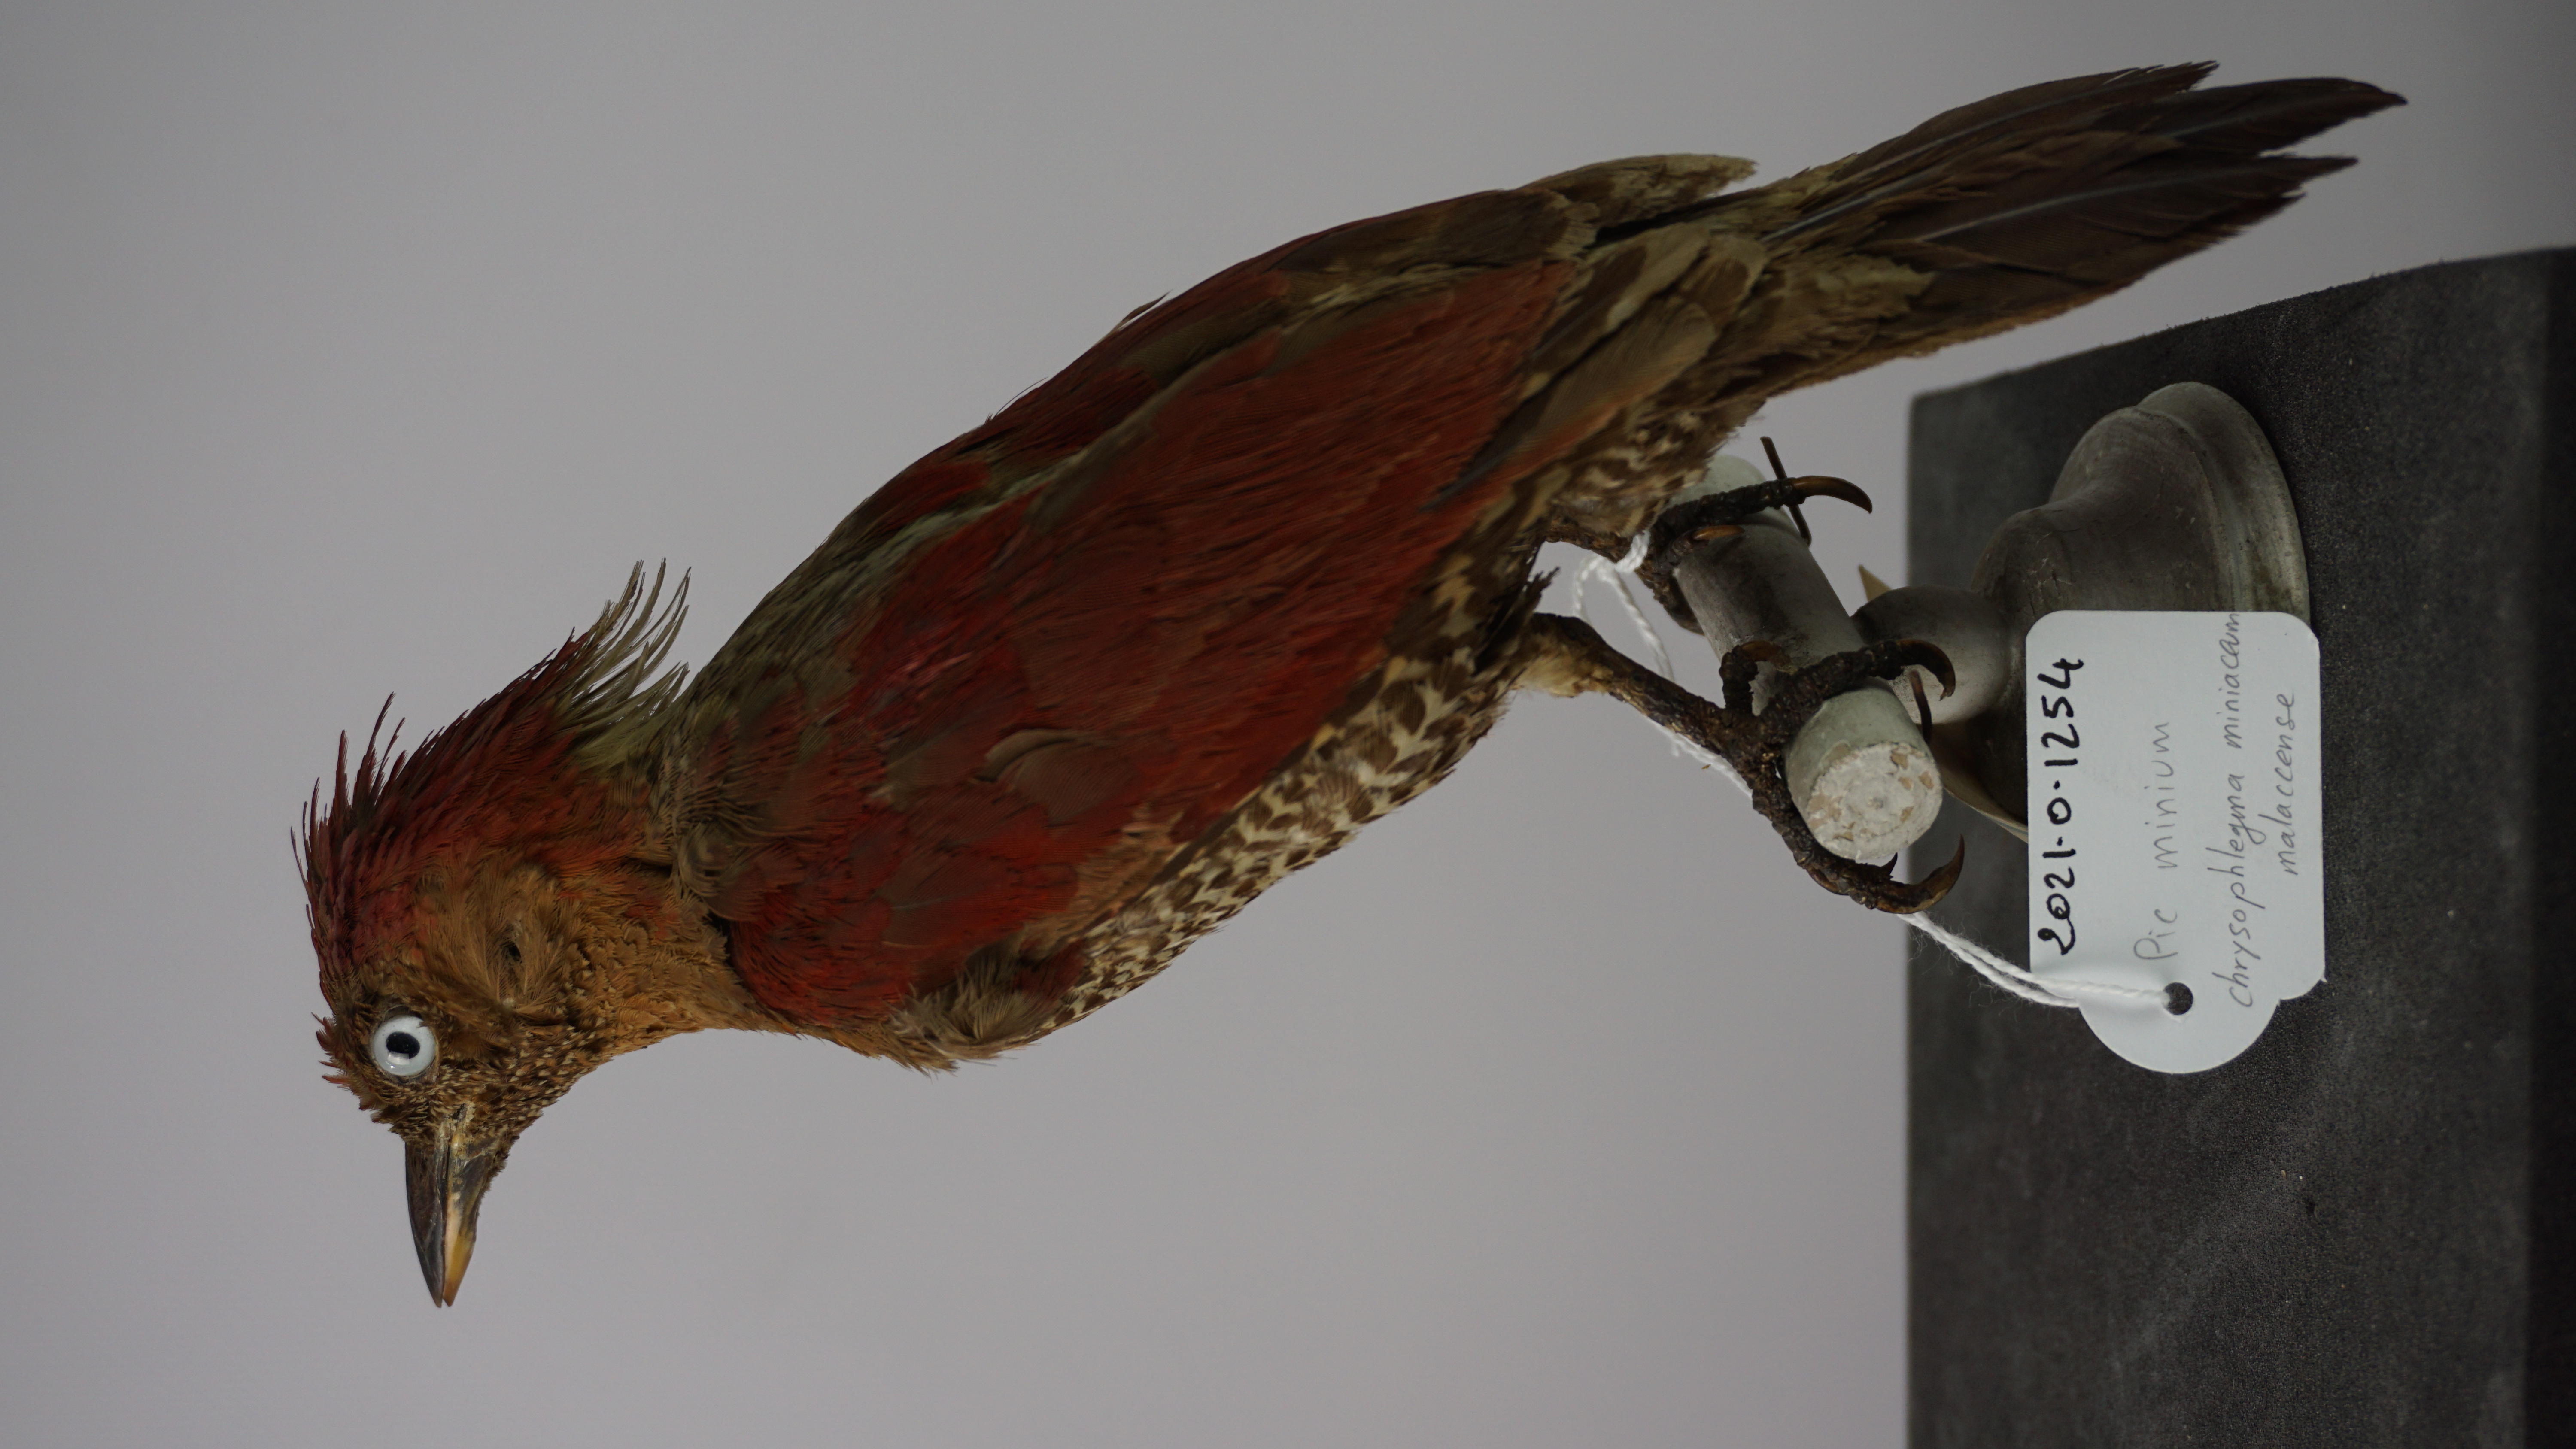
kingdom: Animalia
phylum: Chordata
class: Aves
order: Piciformes
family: Picidae
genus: Chrysophlegma
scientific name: Chrysophlegma miniaceum
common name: Banded woodpecker
